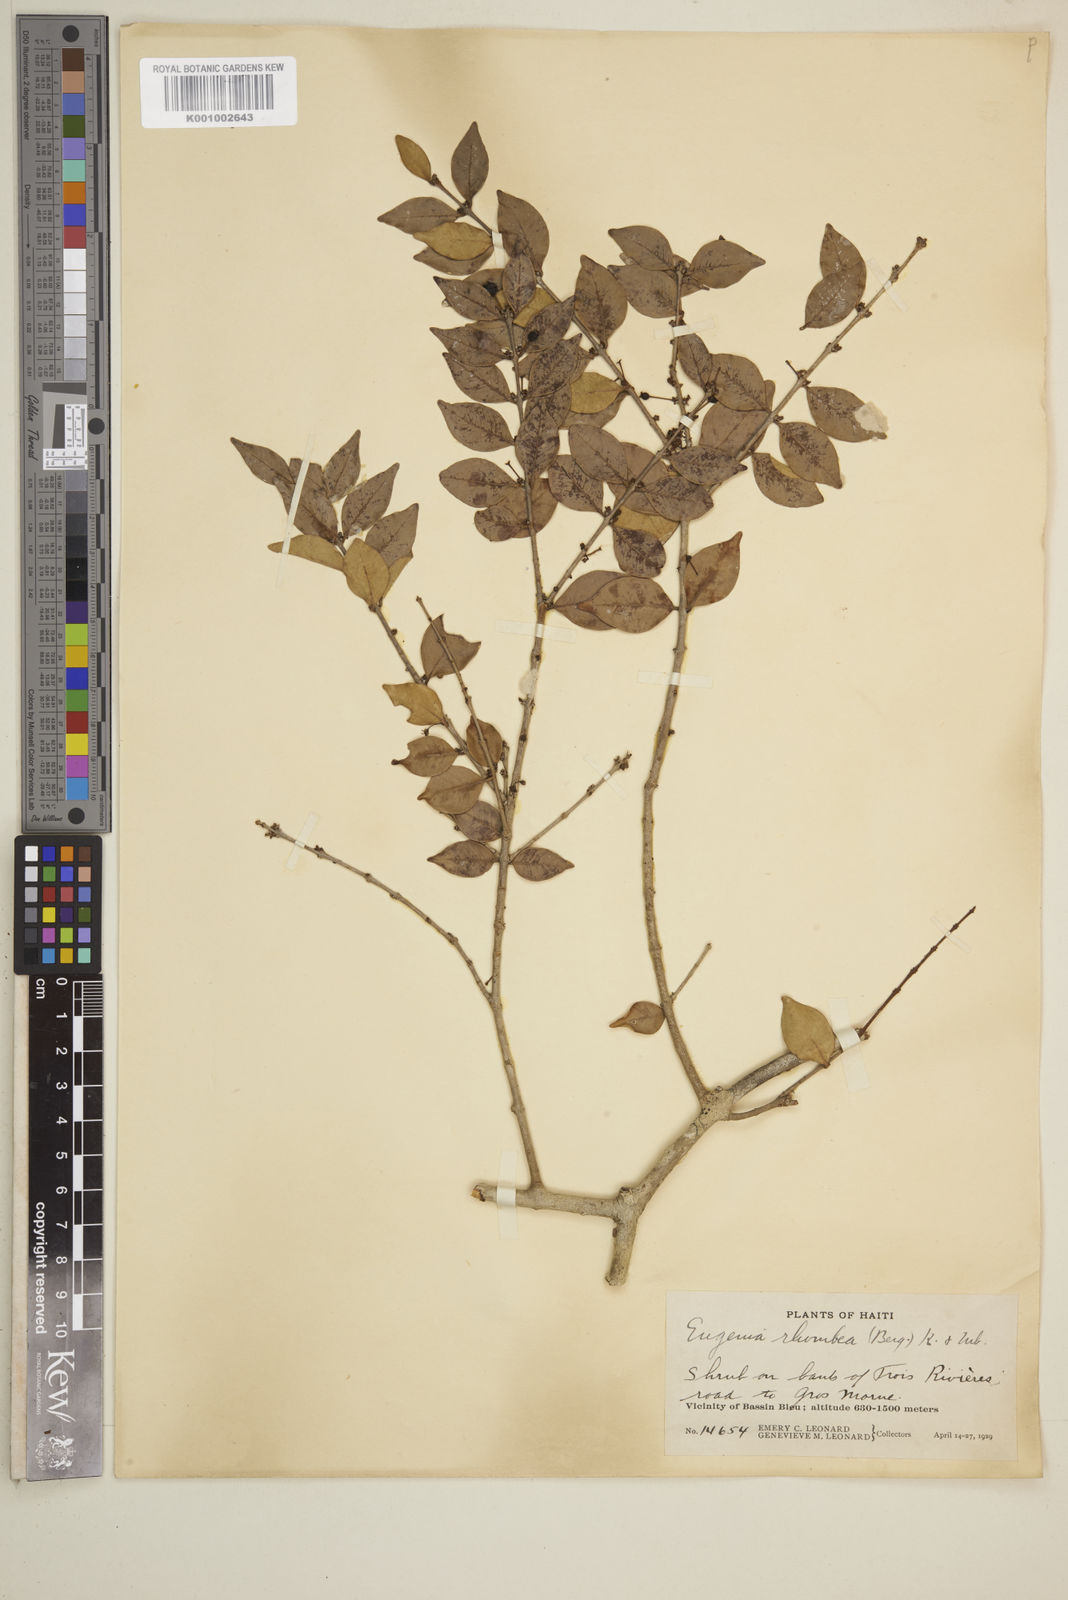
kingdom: Plantae
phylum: Tracheophyta
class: Magnoliopsida
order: Myrtales
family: Myrtaceae
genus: Eugenia
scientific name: Eugenia rhombea
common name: Pigeon berry
